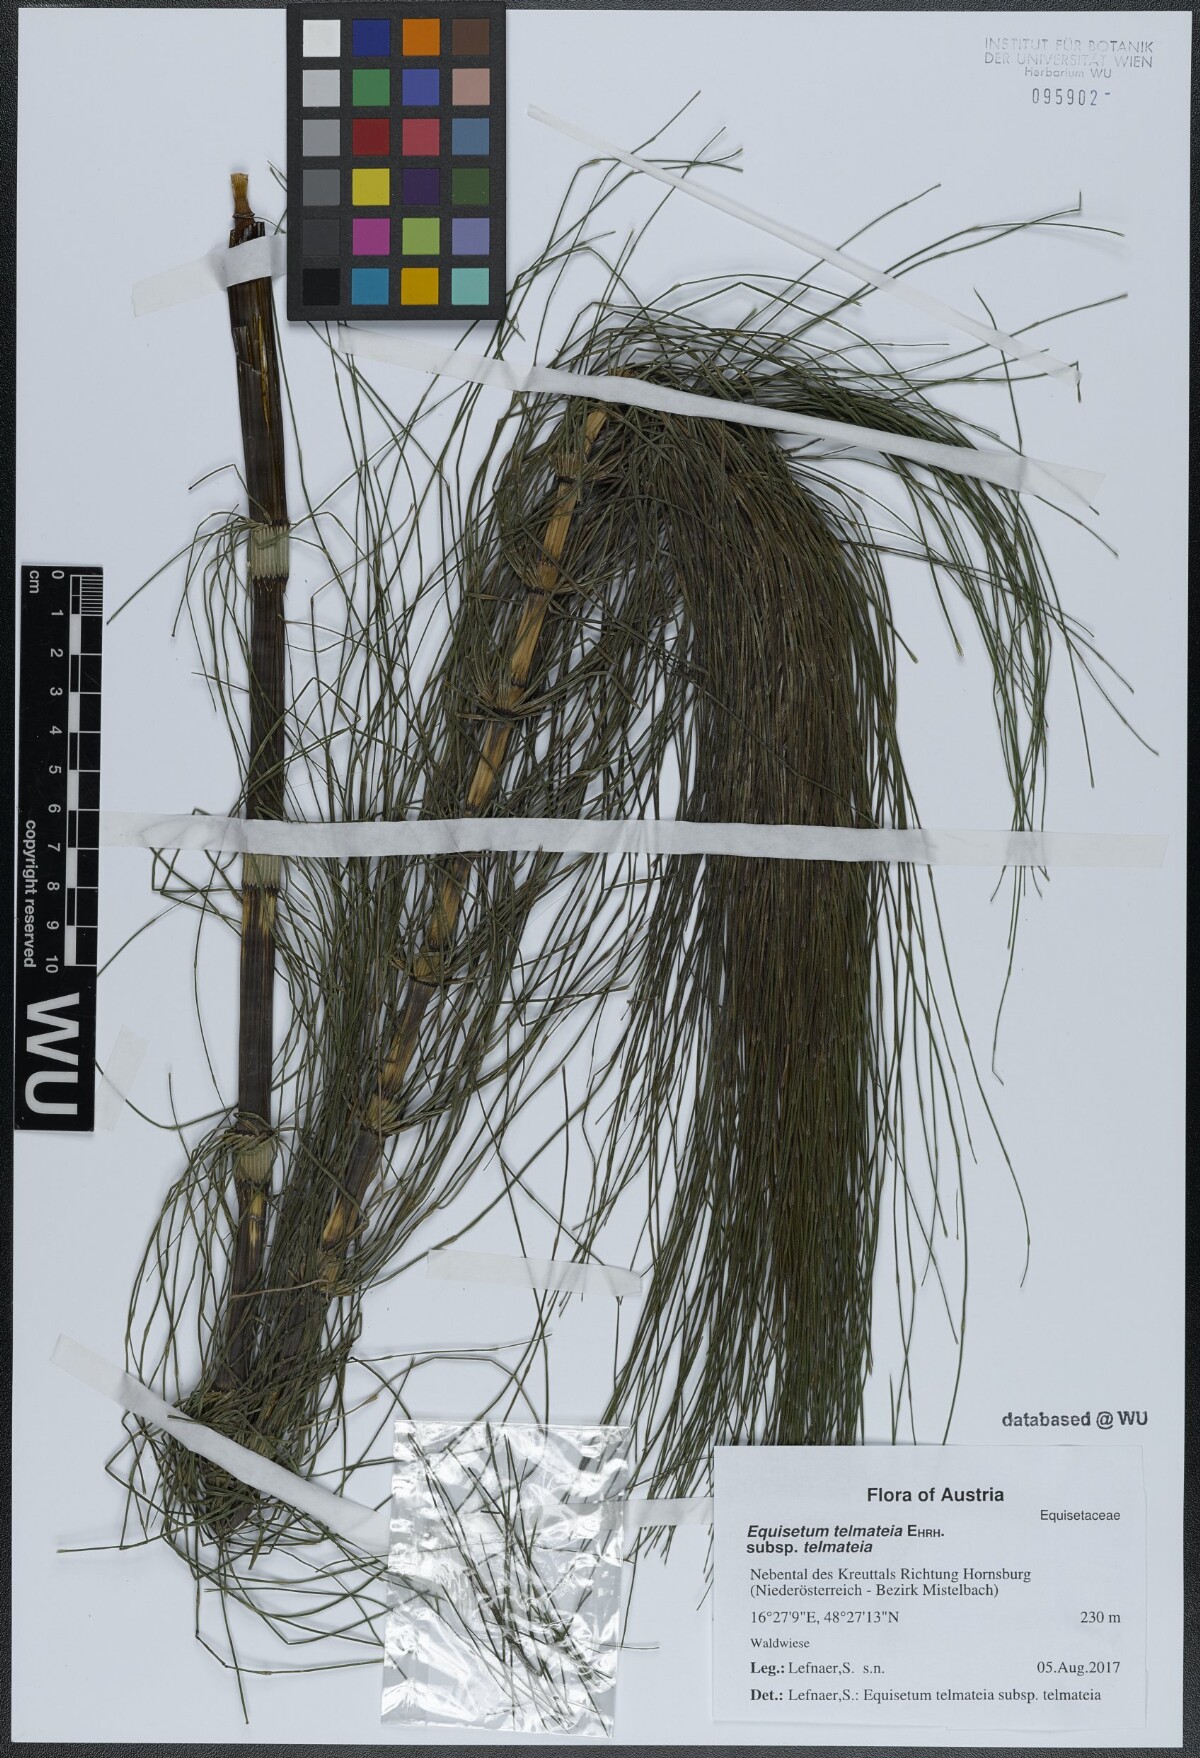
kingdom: Plantae
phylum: Tracheophyta
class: Polypodiopsida
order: Equisetales
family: Equisetaceae
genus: Equisetum
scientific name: Equisetum telmateia
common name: Great horsetail
